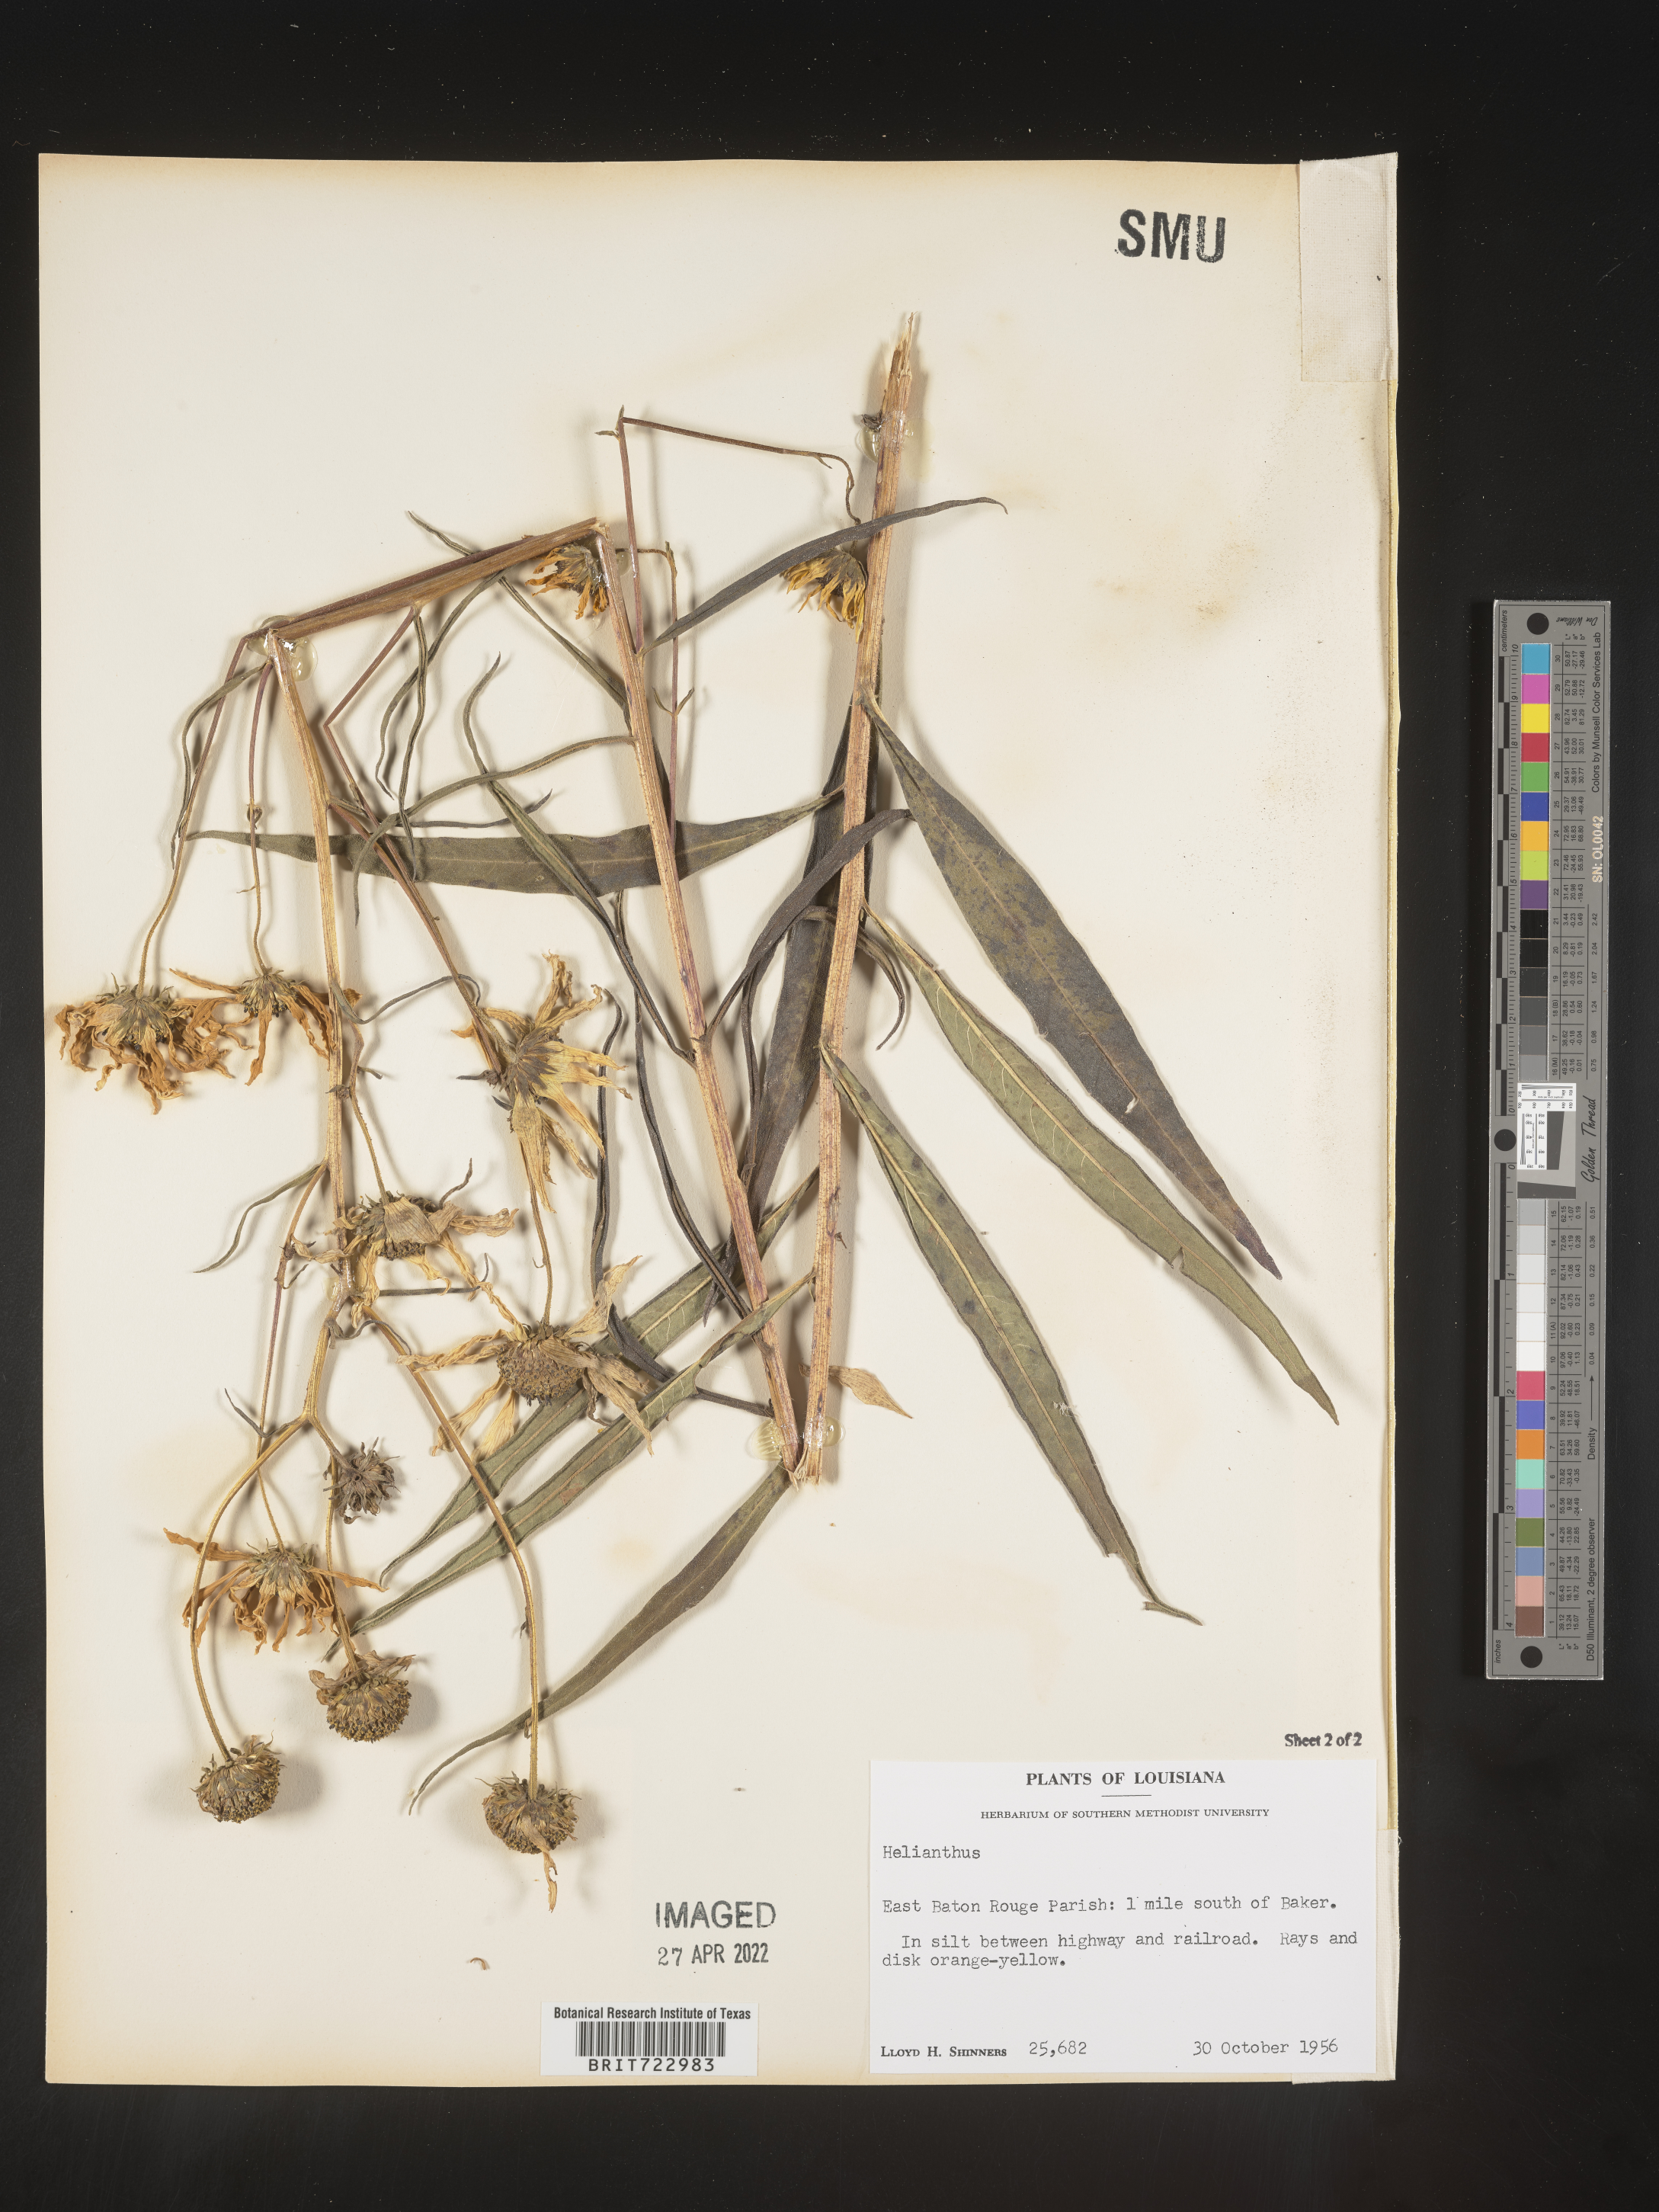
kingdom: Plantae
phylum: Tracheophyta
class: Magnoliopsida
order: Asterales
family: Asteraceae
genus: Helianthus
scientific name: Helianthus
